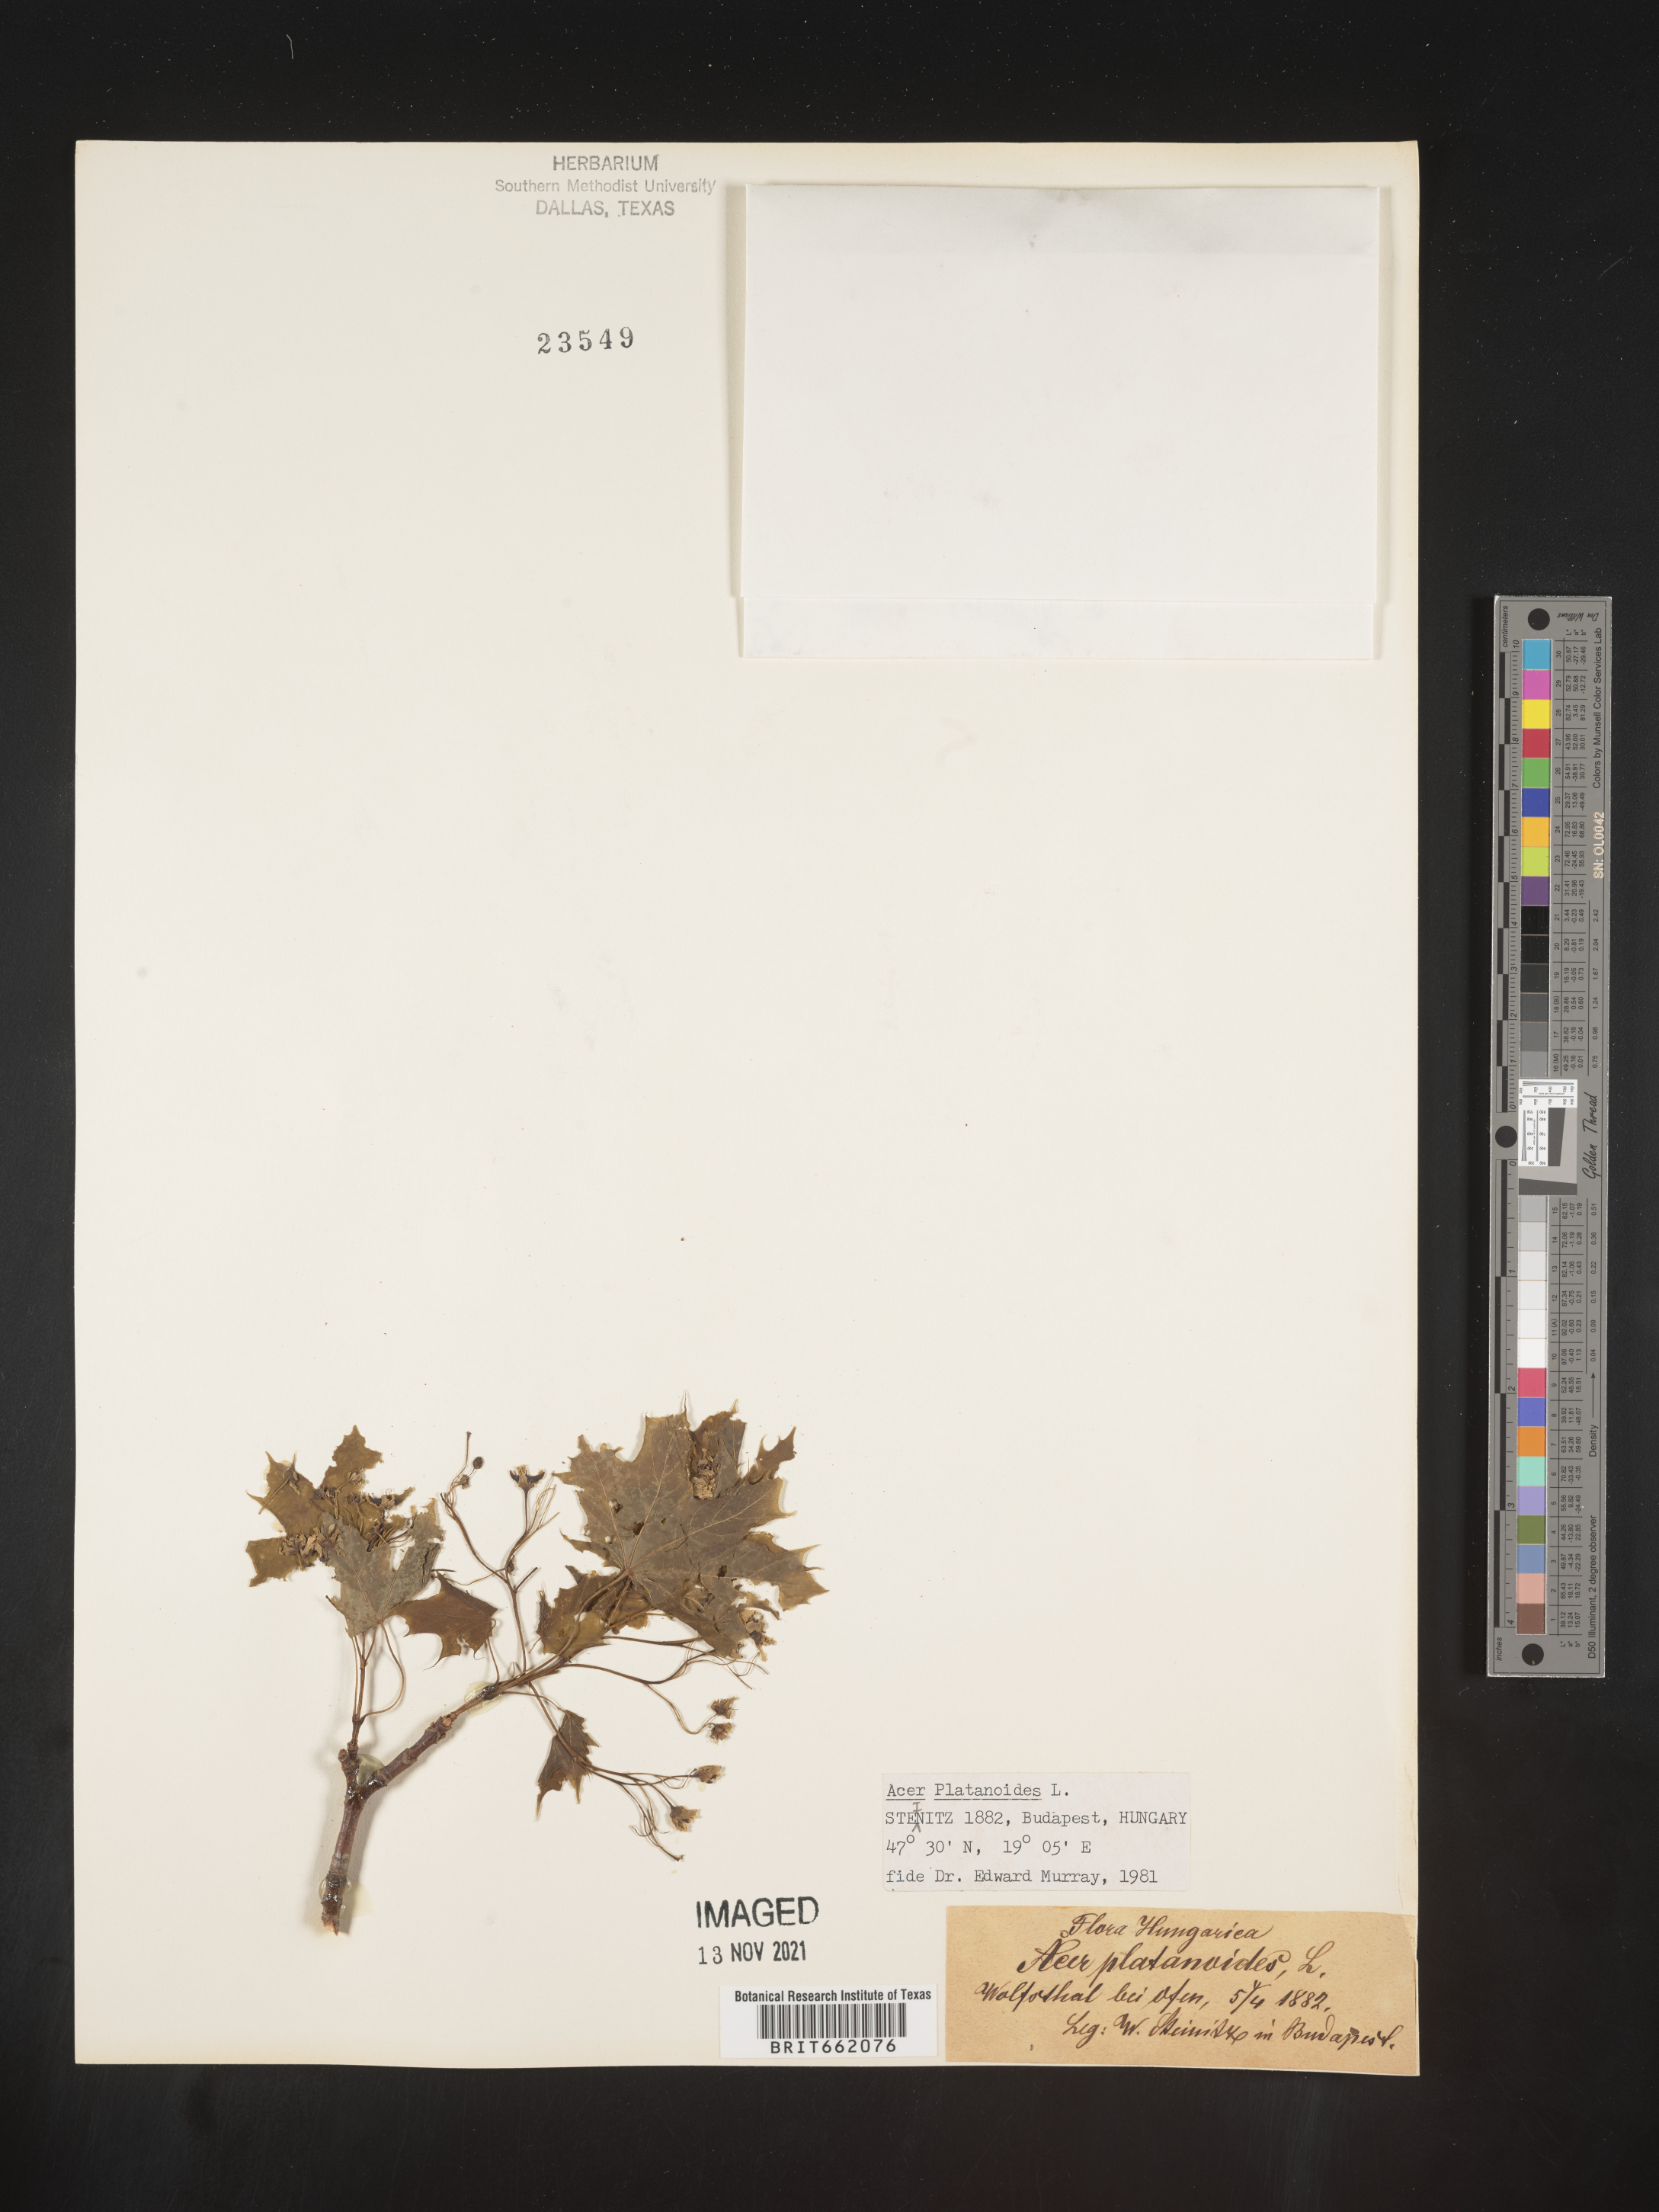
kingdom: Plantae
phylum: Tracheophyta
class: Magnoliopsida
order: Sapindales
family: Sapindaceae
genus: Acer
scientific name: Acer
